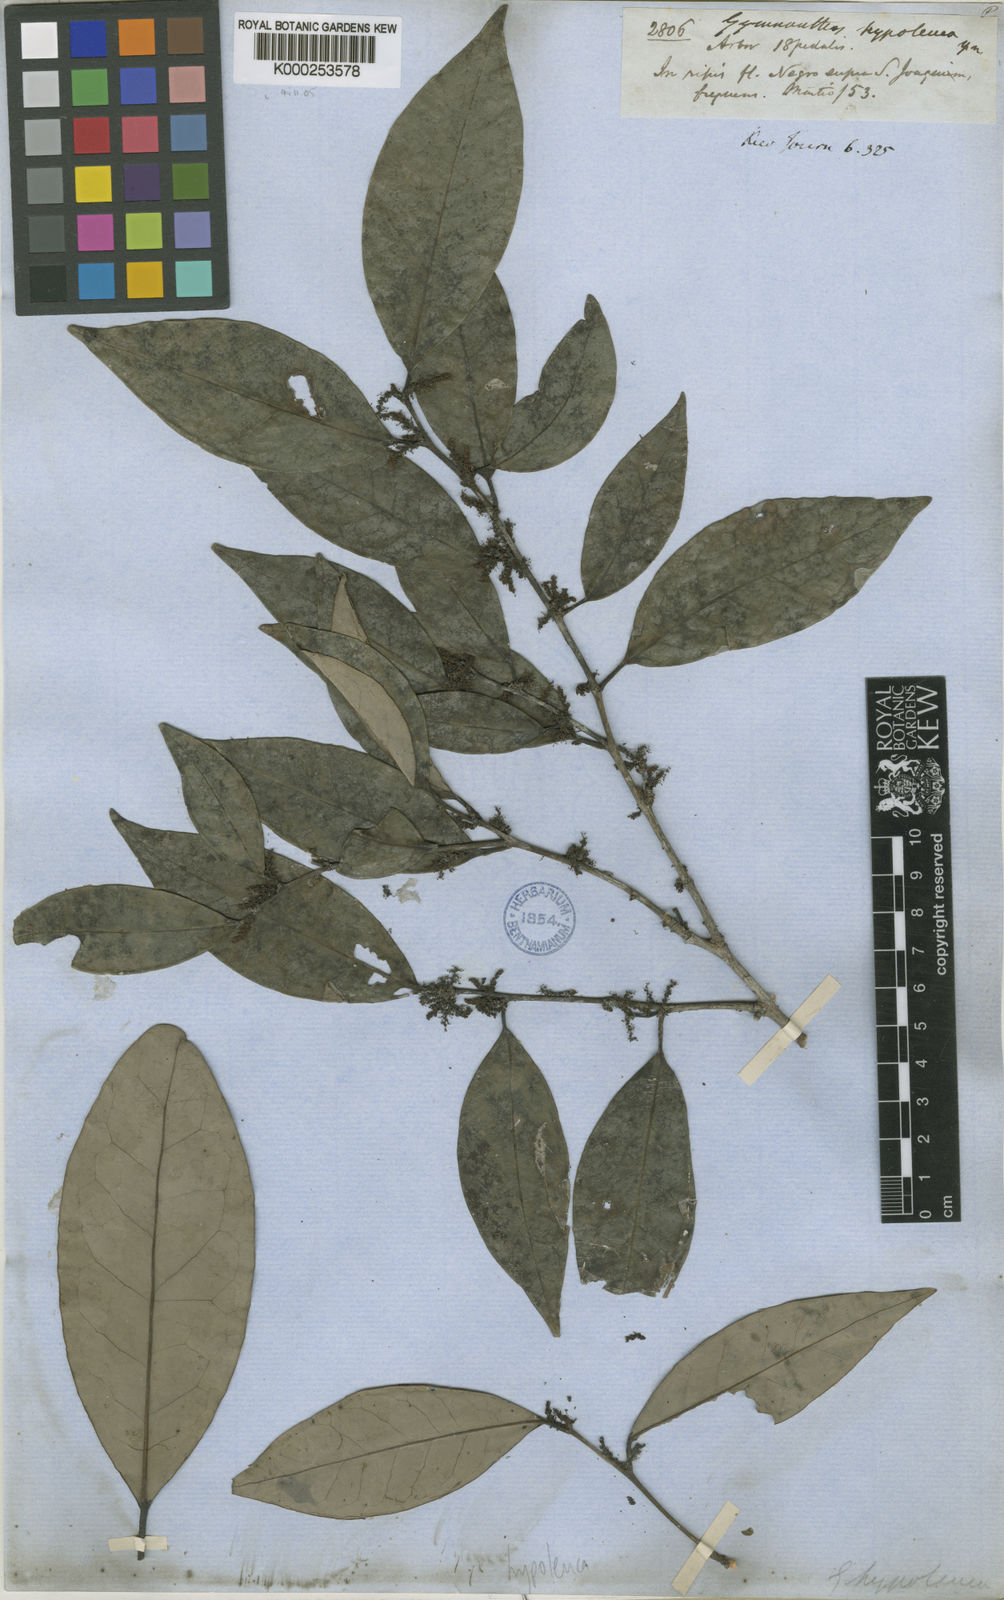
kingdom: Plantae
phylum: Tracheophyta
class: Magnoliopsida
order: Malpighiales
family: Euphorbiaceae
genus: Gymnanthes
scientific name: Gymnanthes hypoleuca
